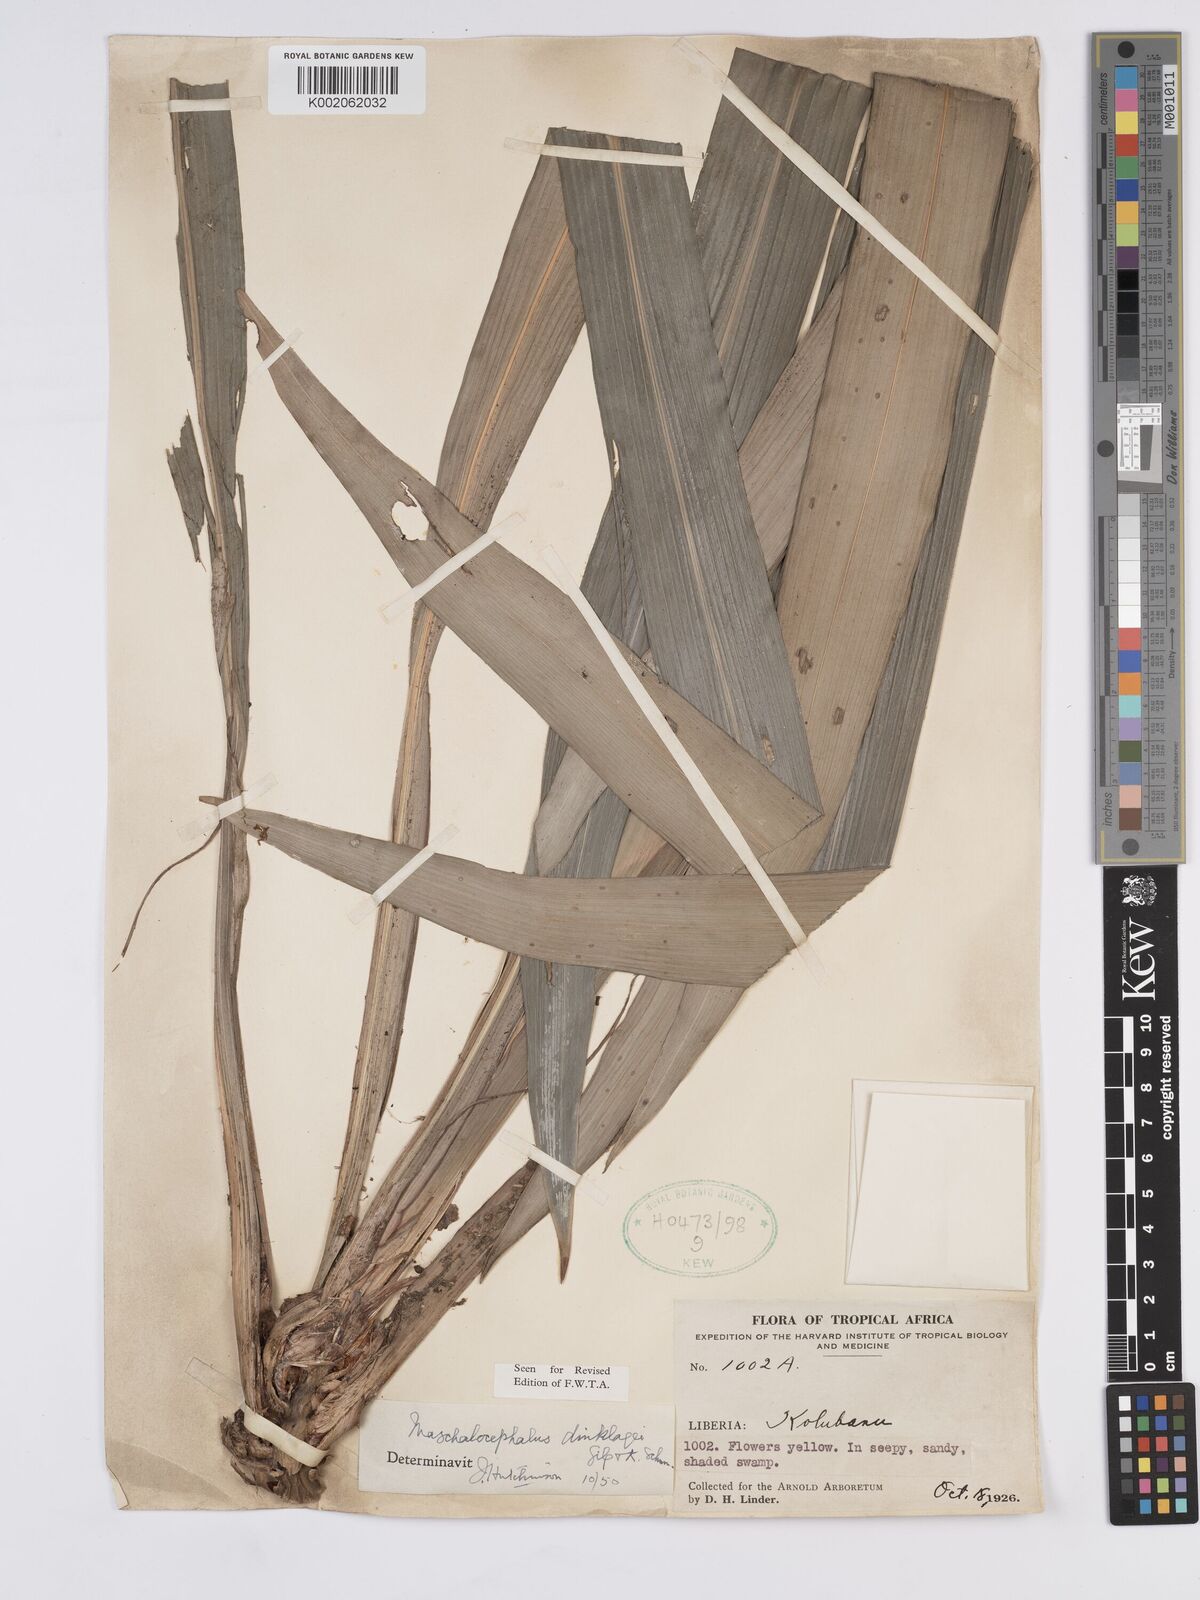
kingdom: Plantae
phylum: Tracheophyta
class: Liliopsida
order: Poales
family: Rapateaceae
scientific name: Rapateaceae
